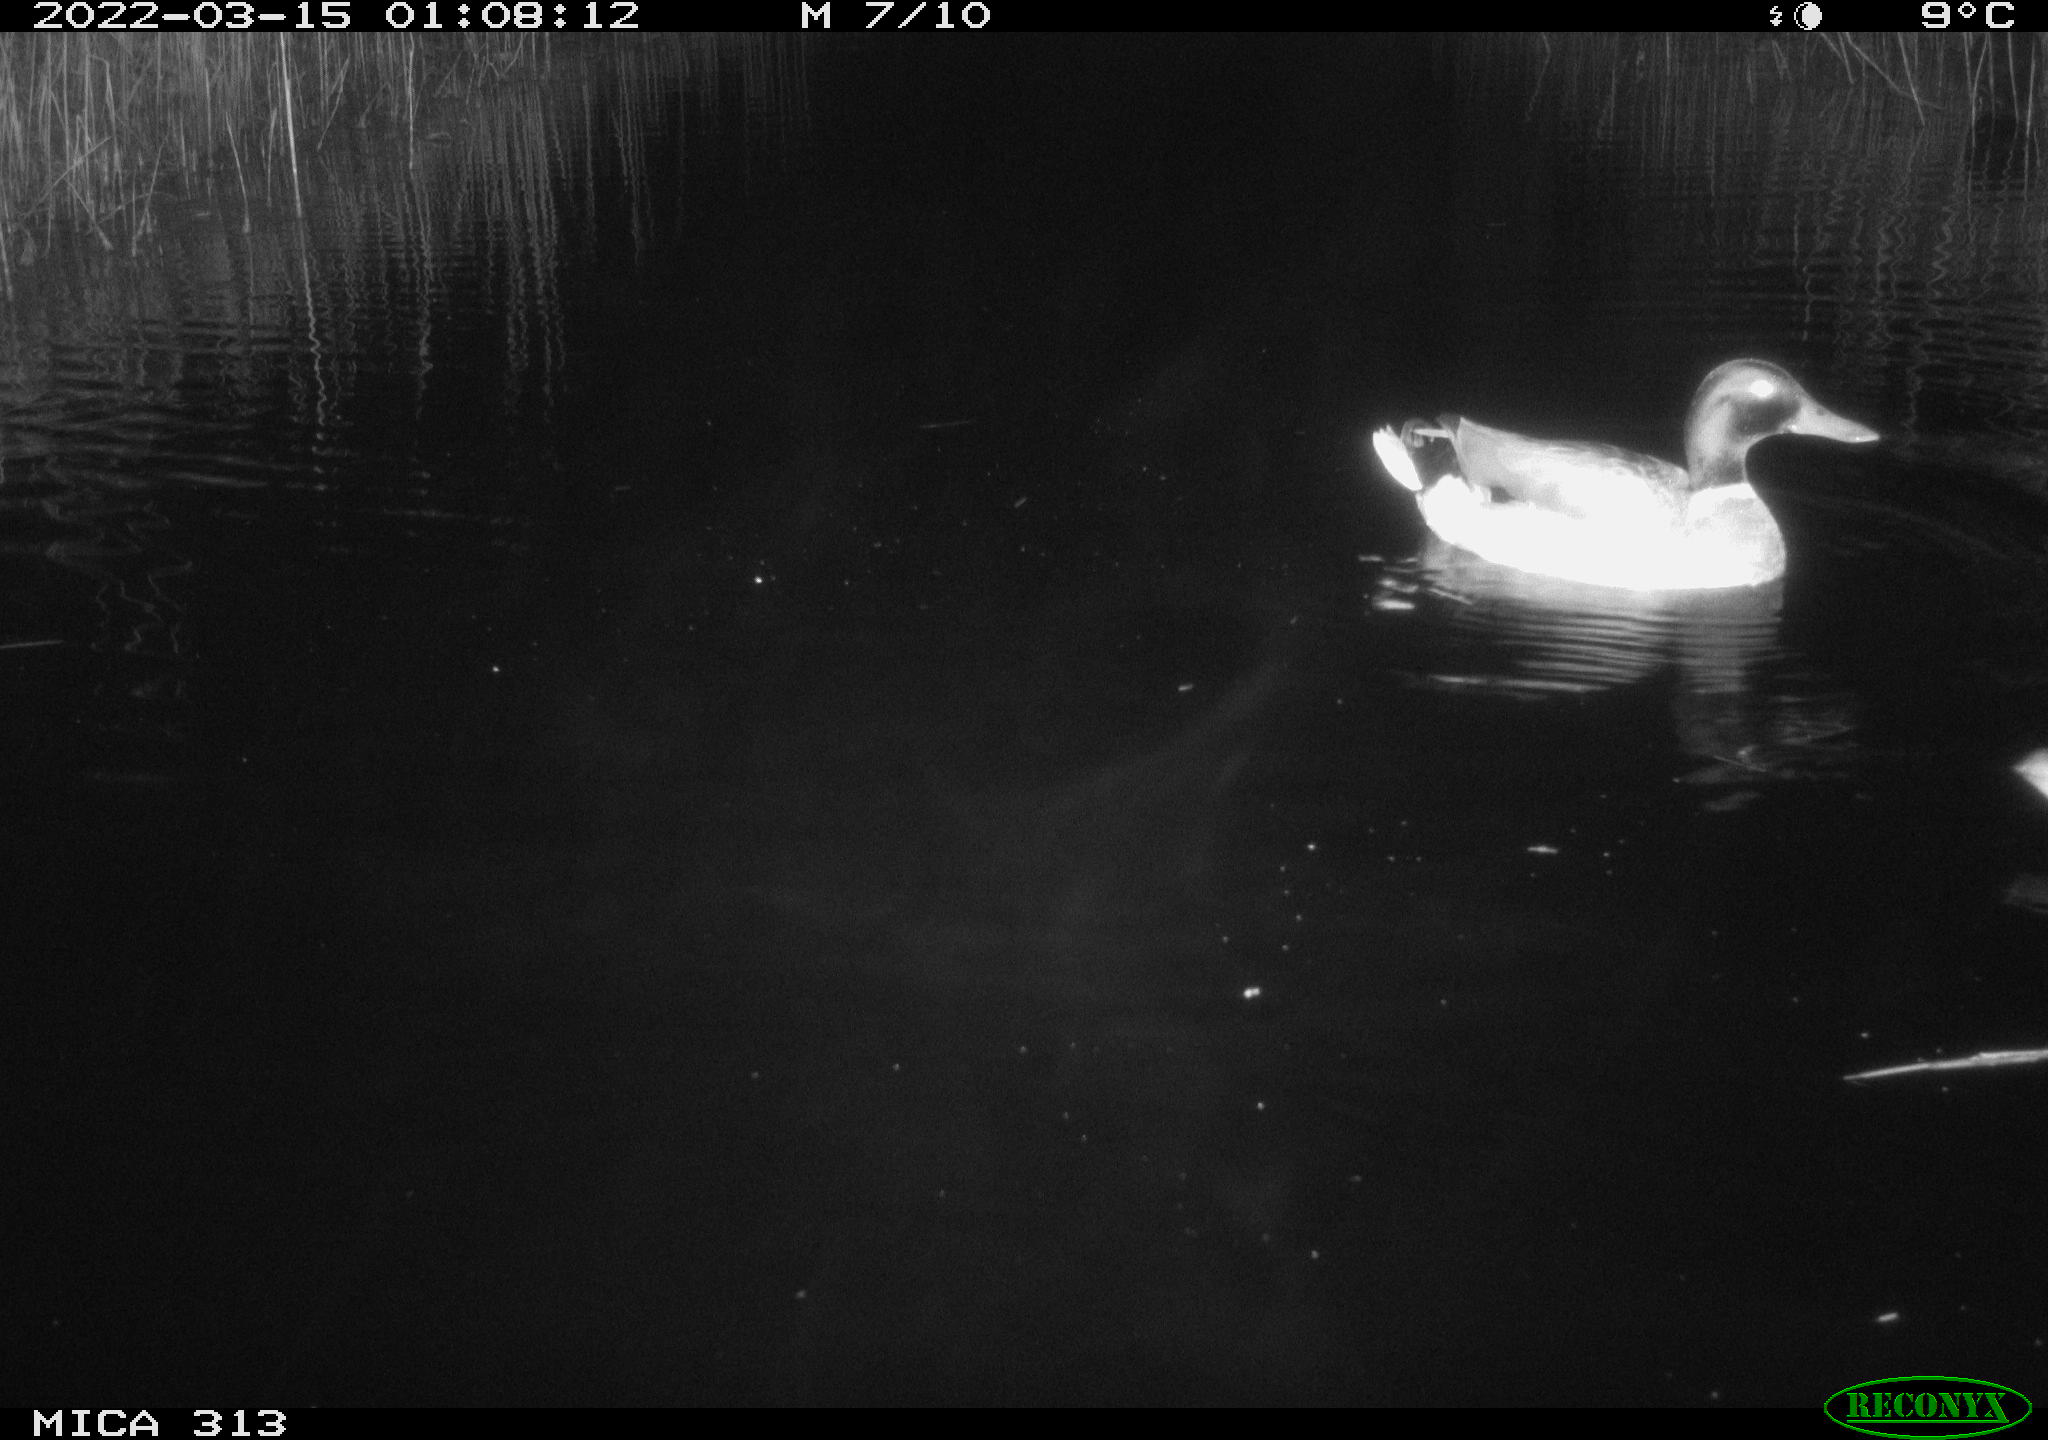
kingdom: Animalia
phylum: Chordata
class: Aves
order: Anseriformes
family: Anatidae
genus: Anas
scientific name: Anas platyrhynchos
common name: Mallard
